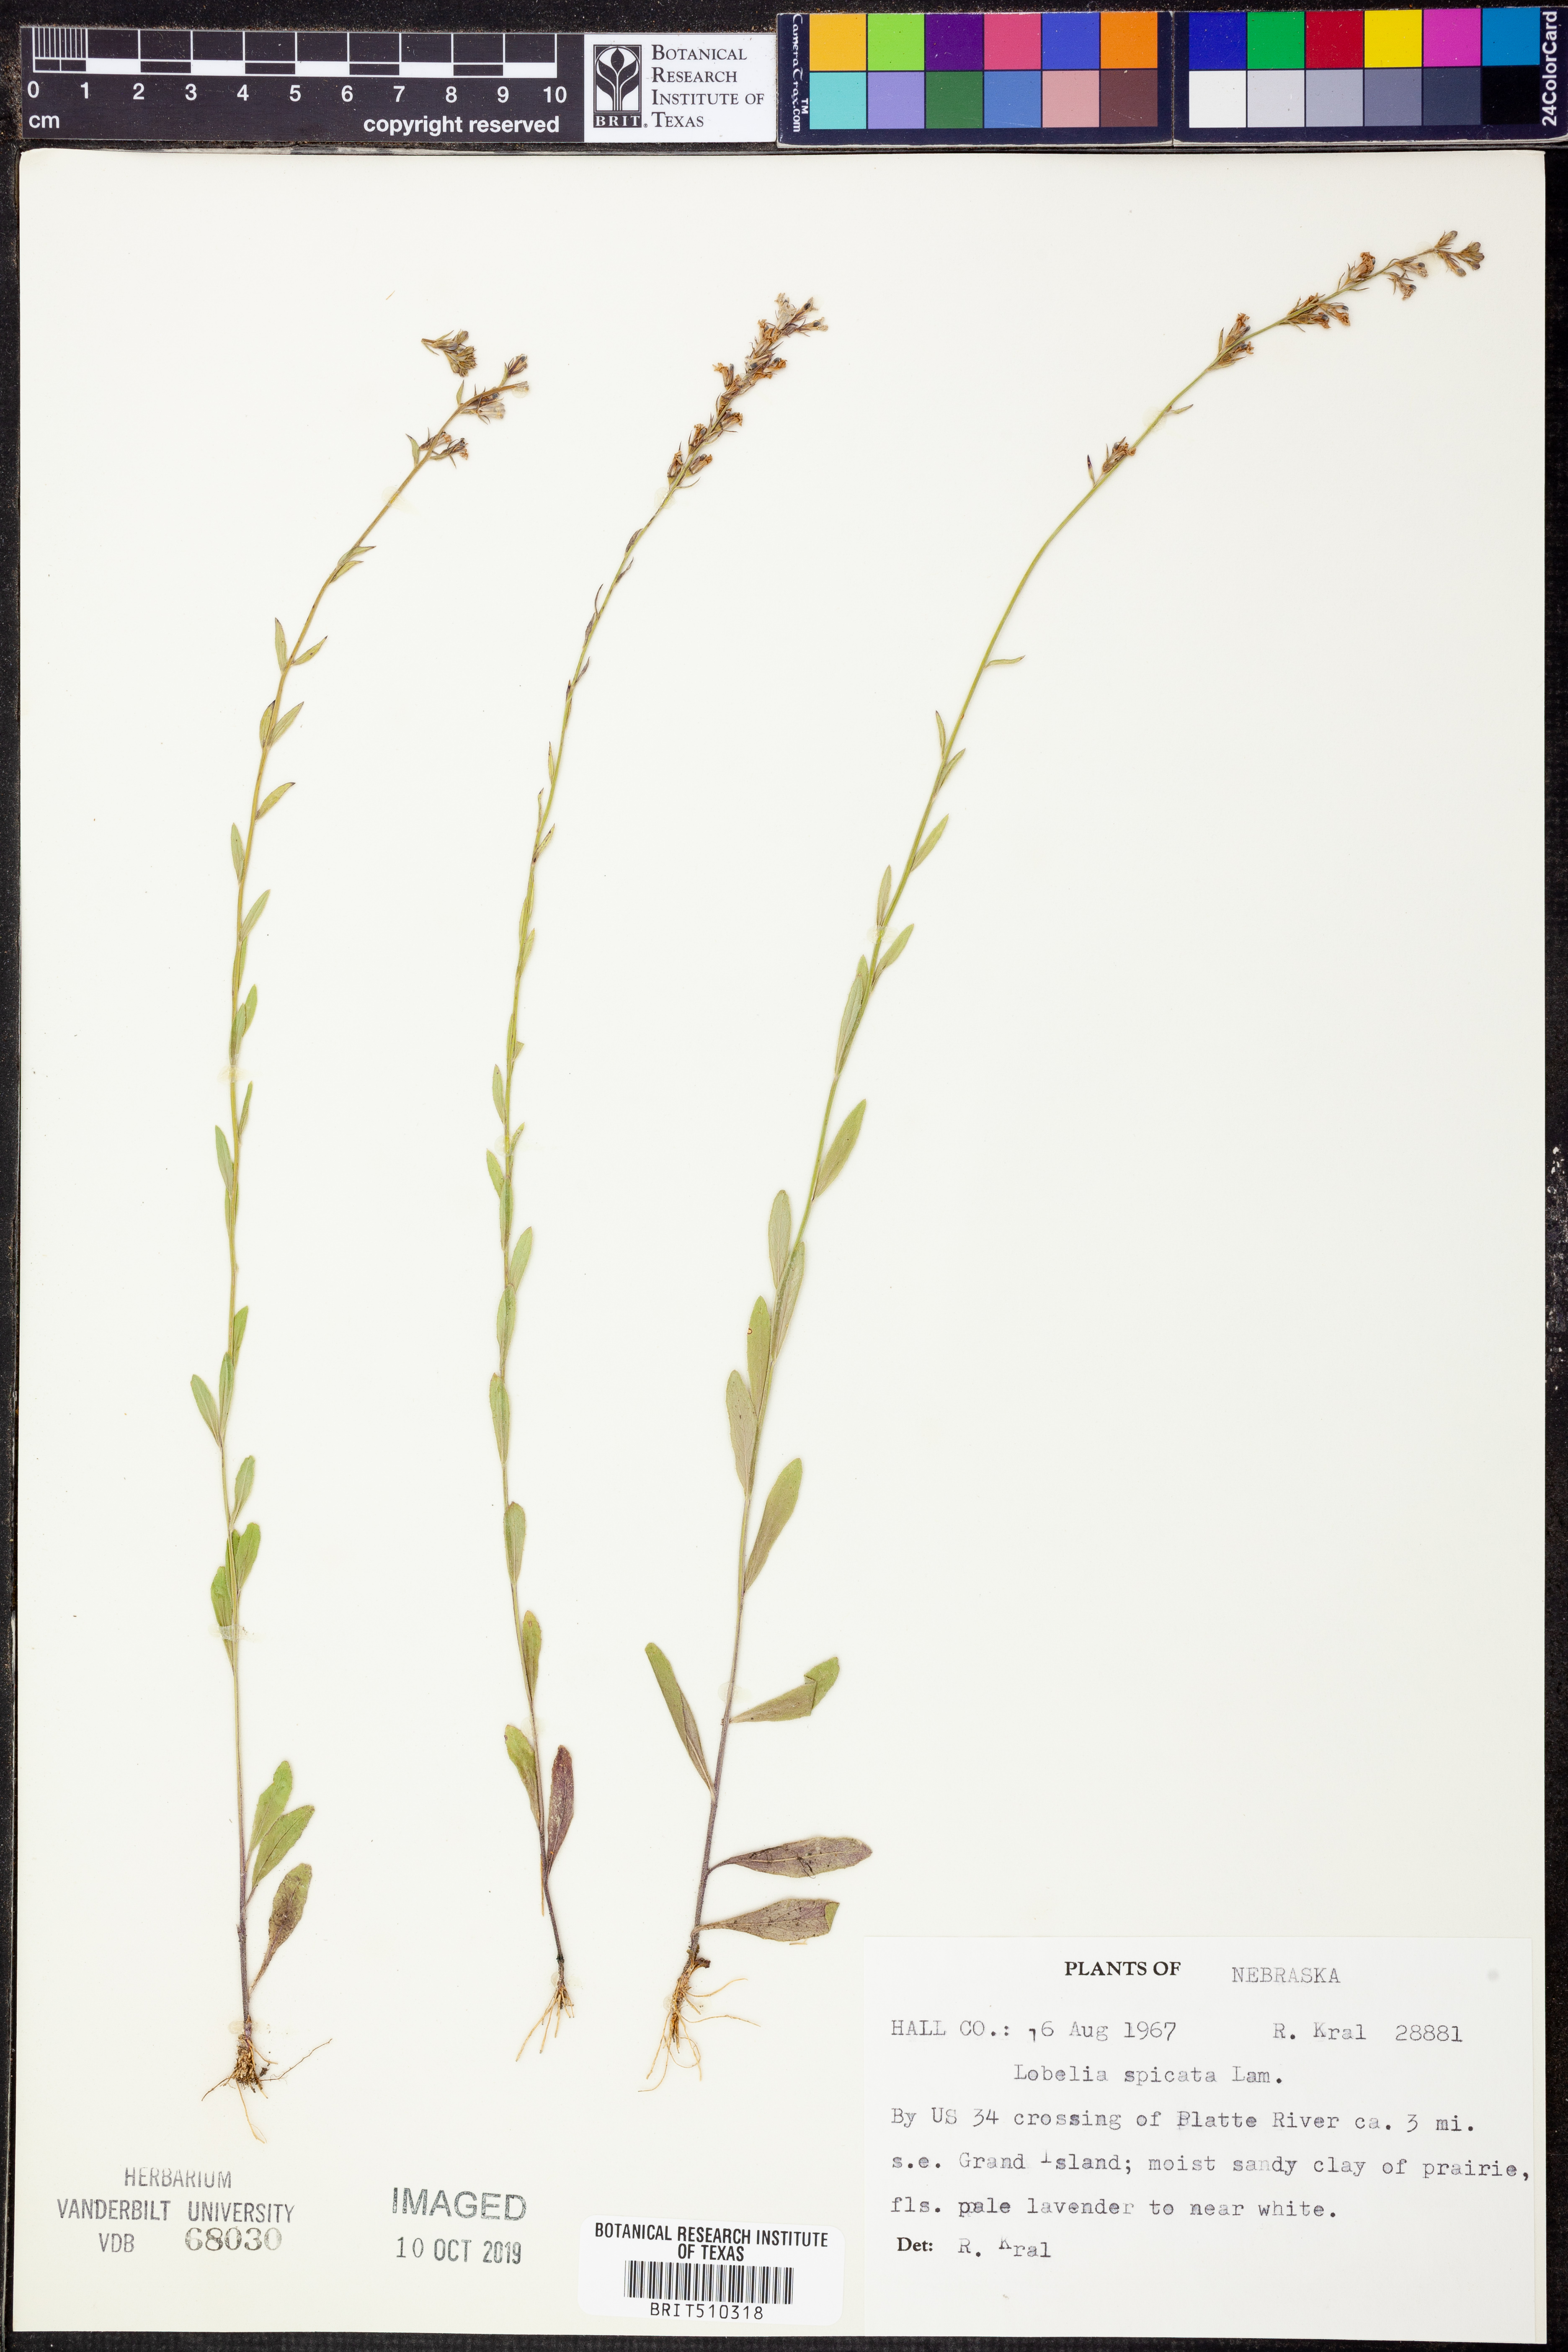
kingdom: Plantae
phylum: Tracheophyta
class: Magnoliopsida
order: Asterales
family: Campanulaceae
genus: Lobelia
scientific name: Lobelia spicata
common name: Pale-spike lobelia
